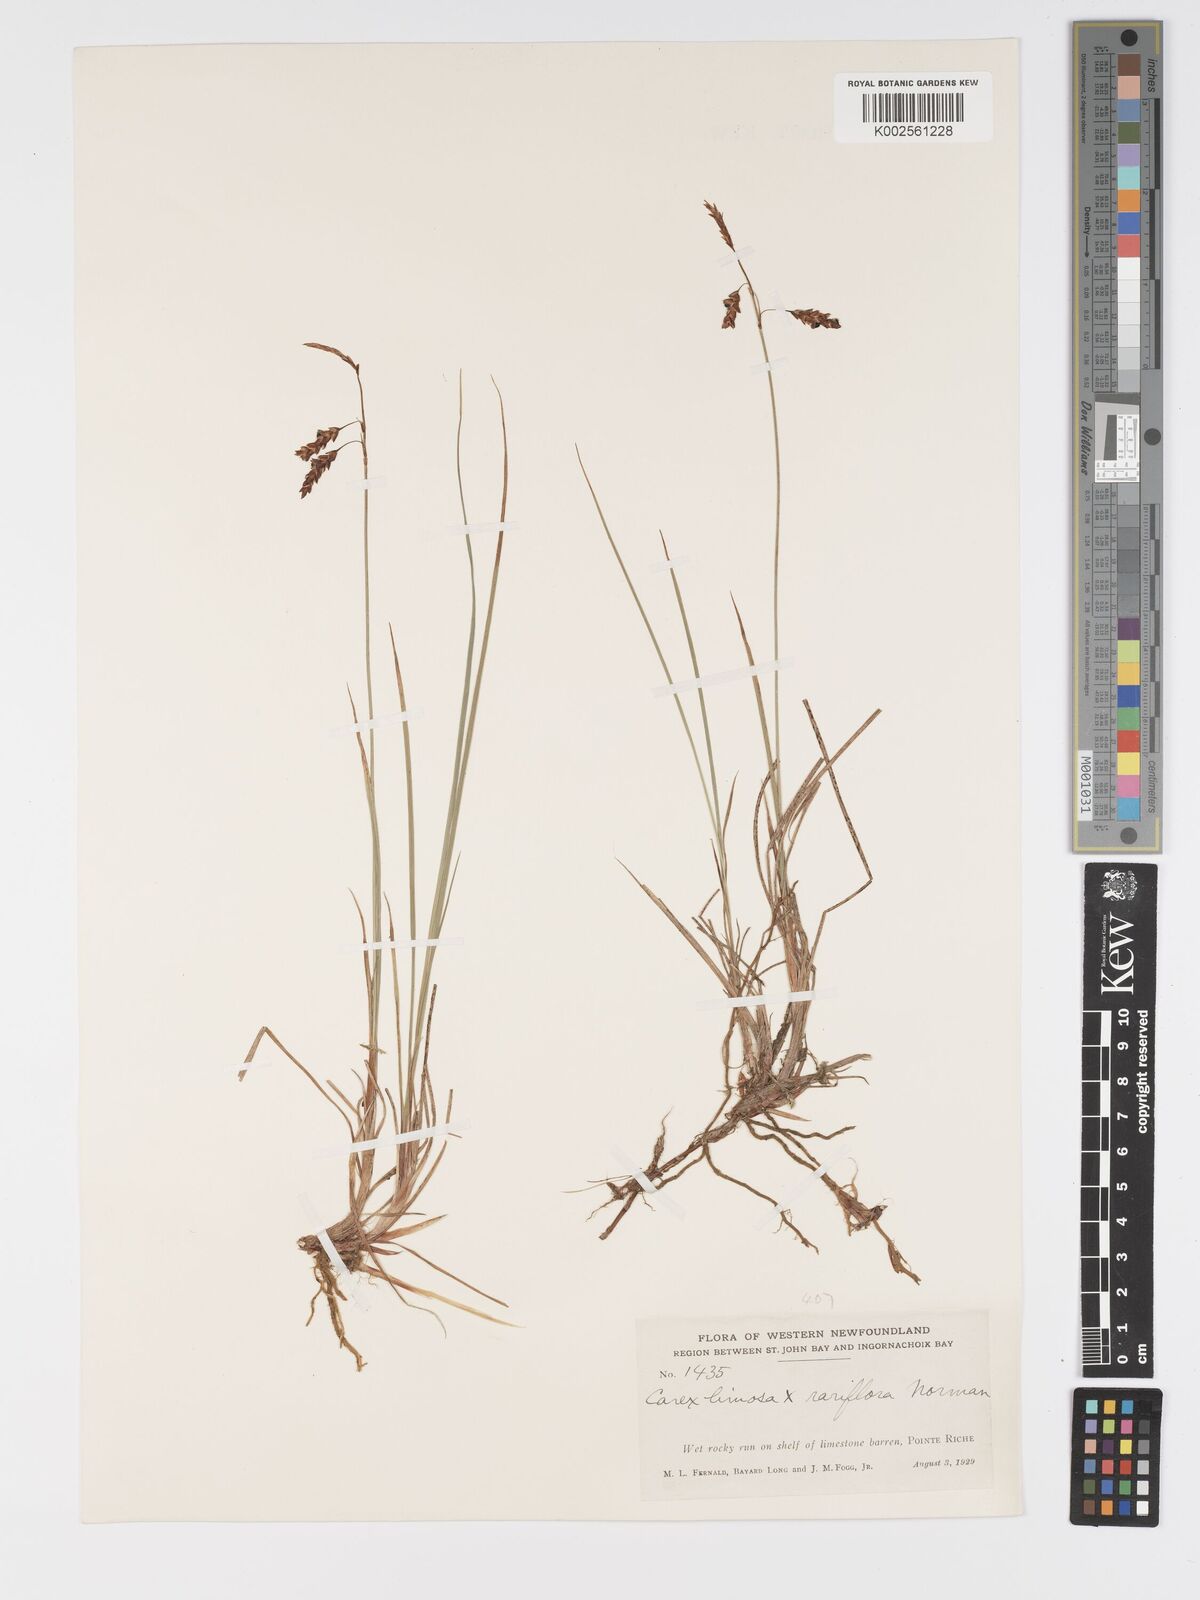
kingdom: Plantae
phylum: Tracheophyta
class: Liliopsida
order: Poales
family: Cyperaceae
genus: Carex
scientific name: Carex limosa
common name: Bog sedge
